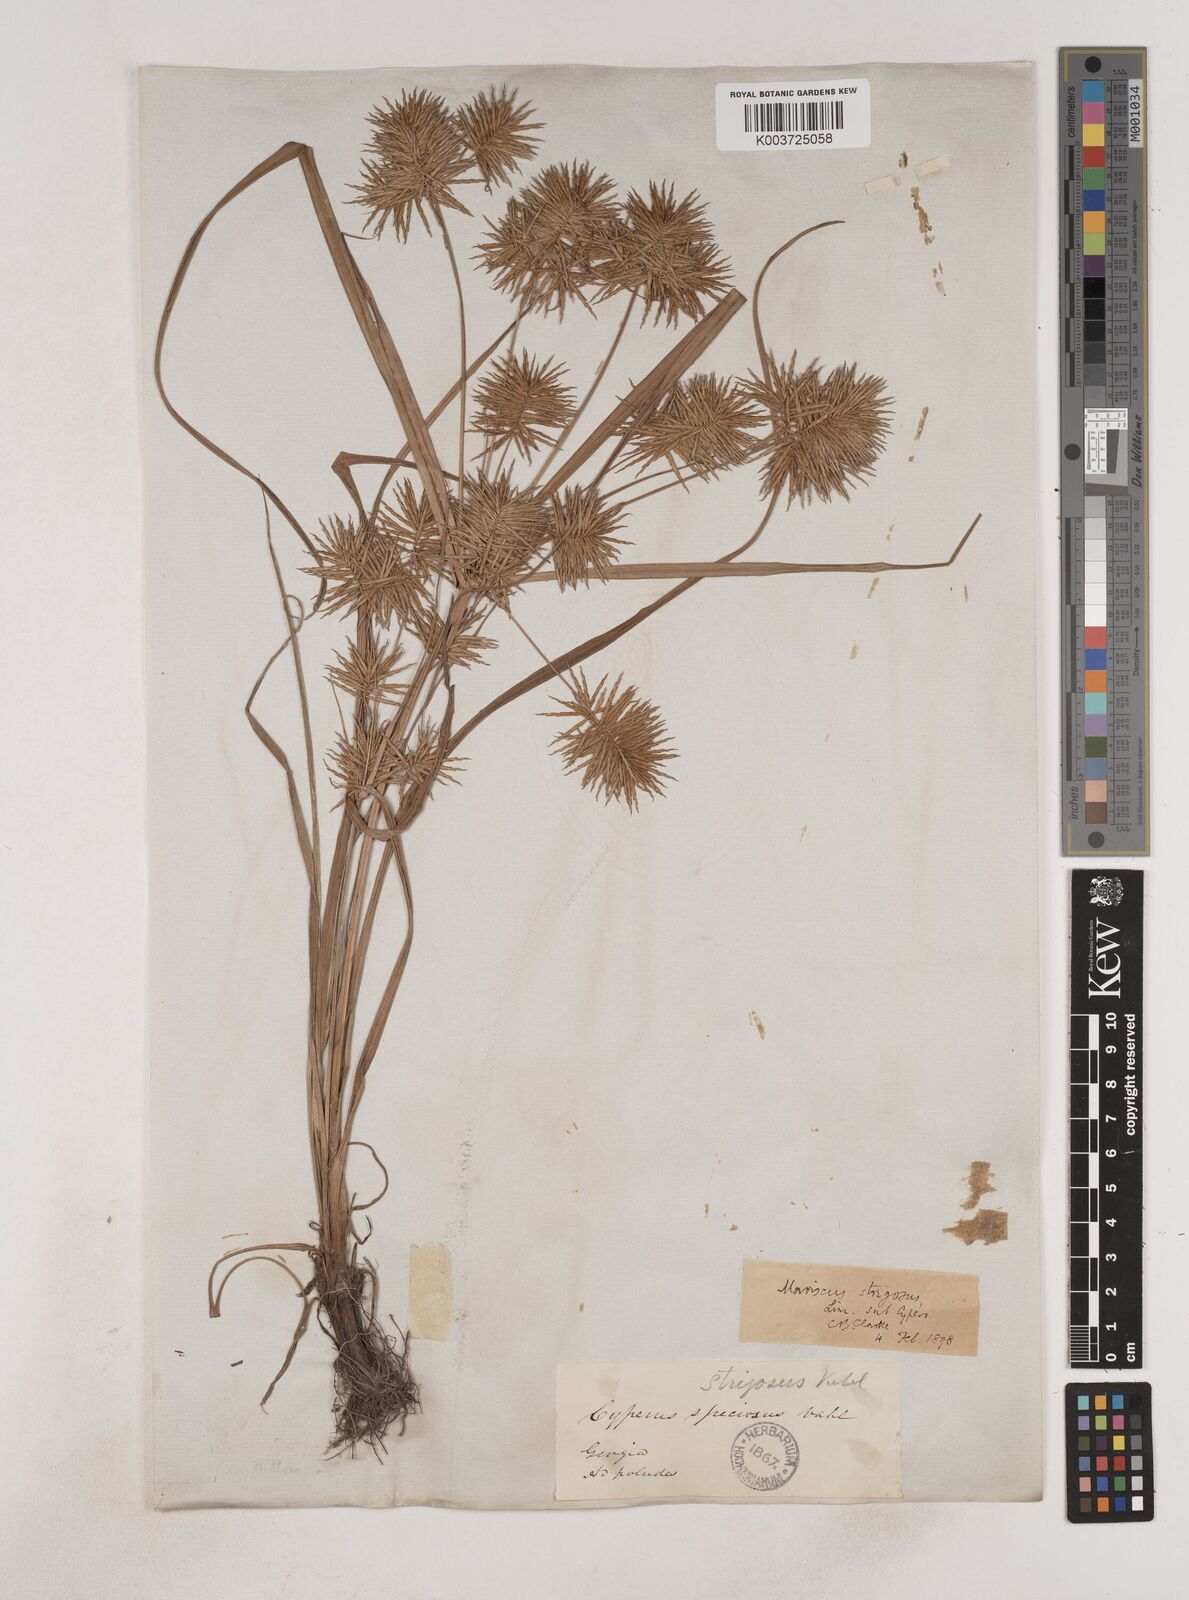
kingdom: Plantae
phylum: Tracheophyta
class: Liliopsida
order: Poales
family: Cyperaceae
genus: Cyperus
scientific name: Cyperus strigosus
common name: False nutsedge
